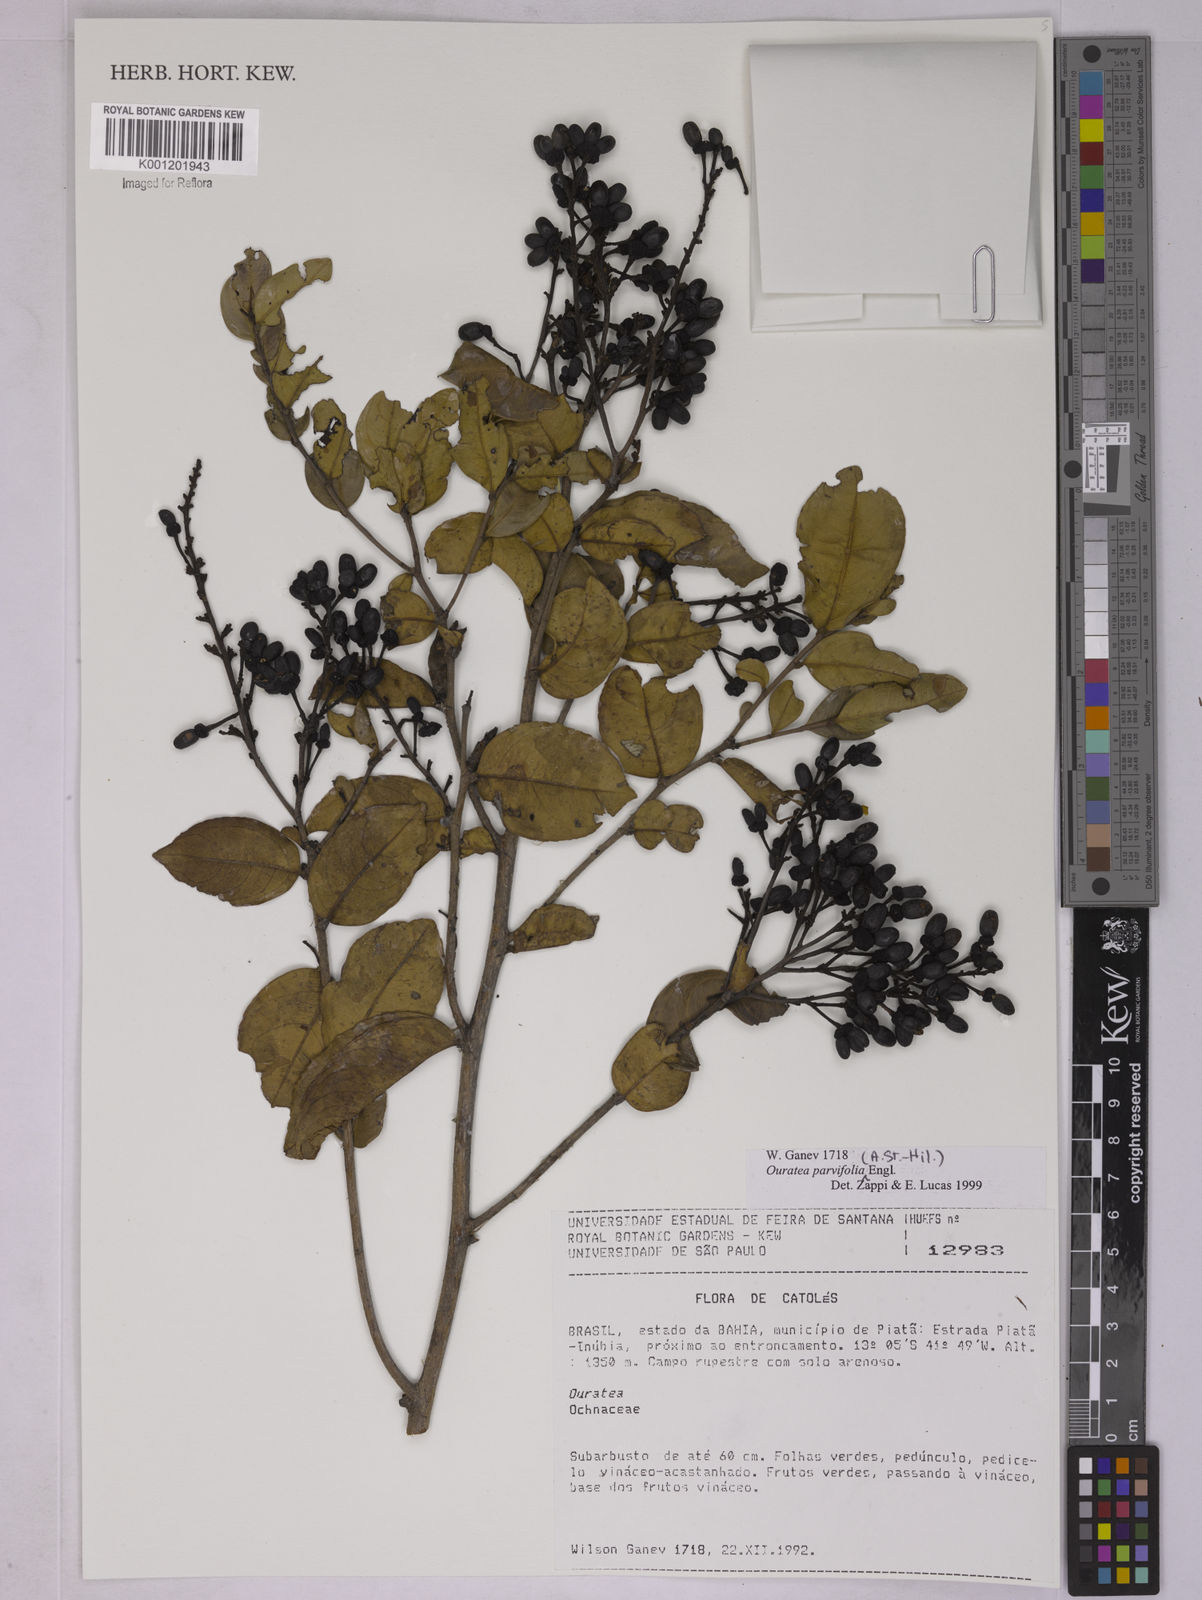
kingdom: Plantae
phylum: Tracheophyta
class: Magnoliopsida
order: Malpighiales
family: Ochnaceae
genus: Ouratea
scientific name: Ouratea parvifolia
